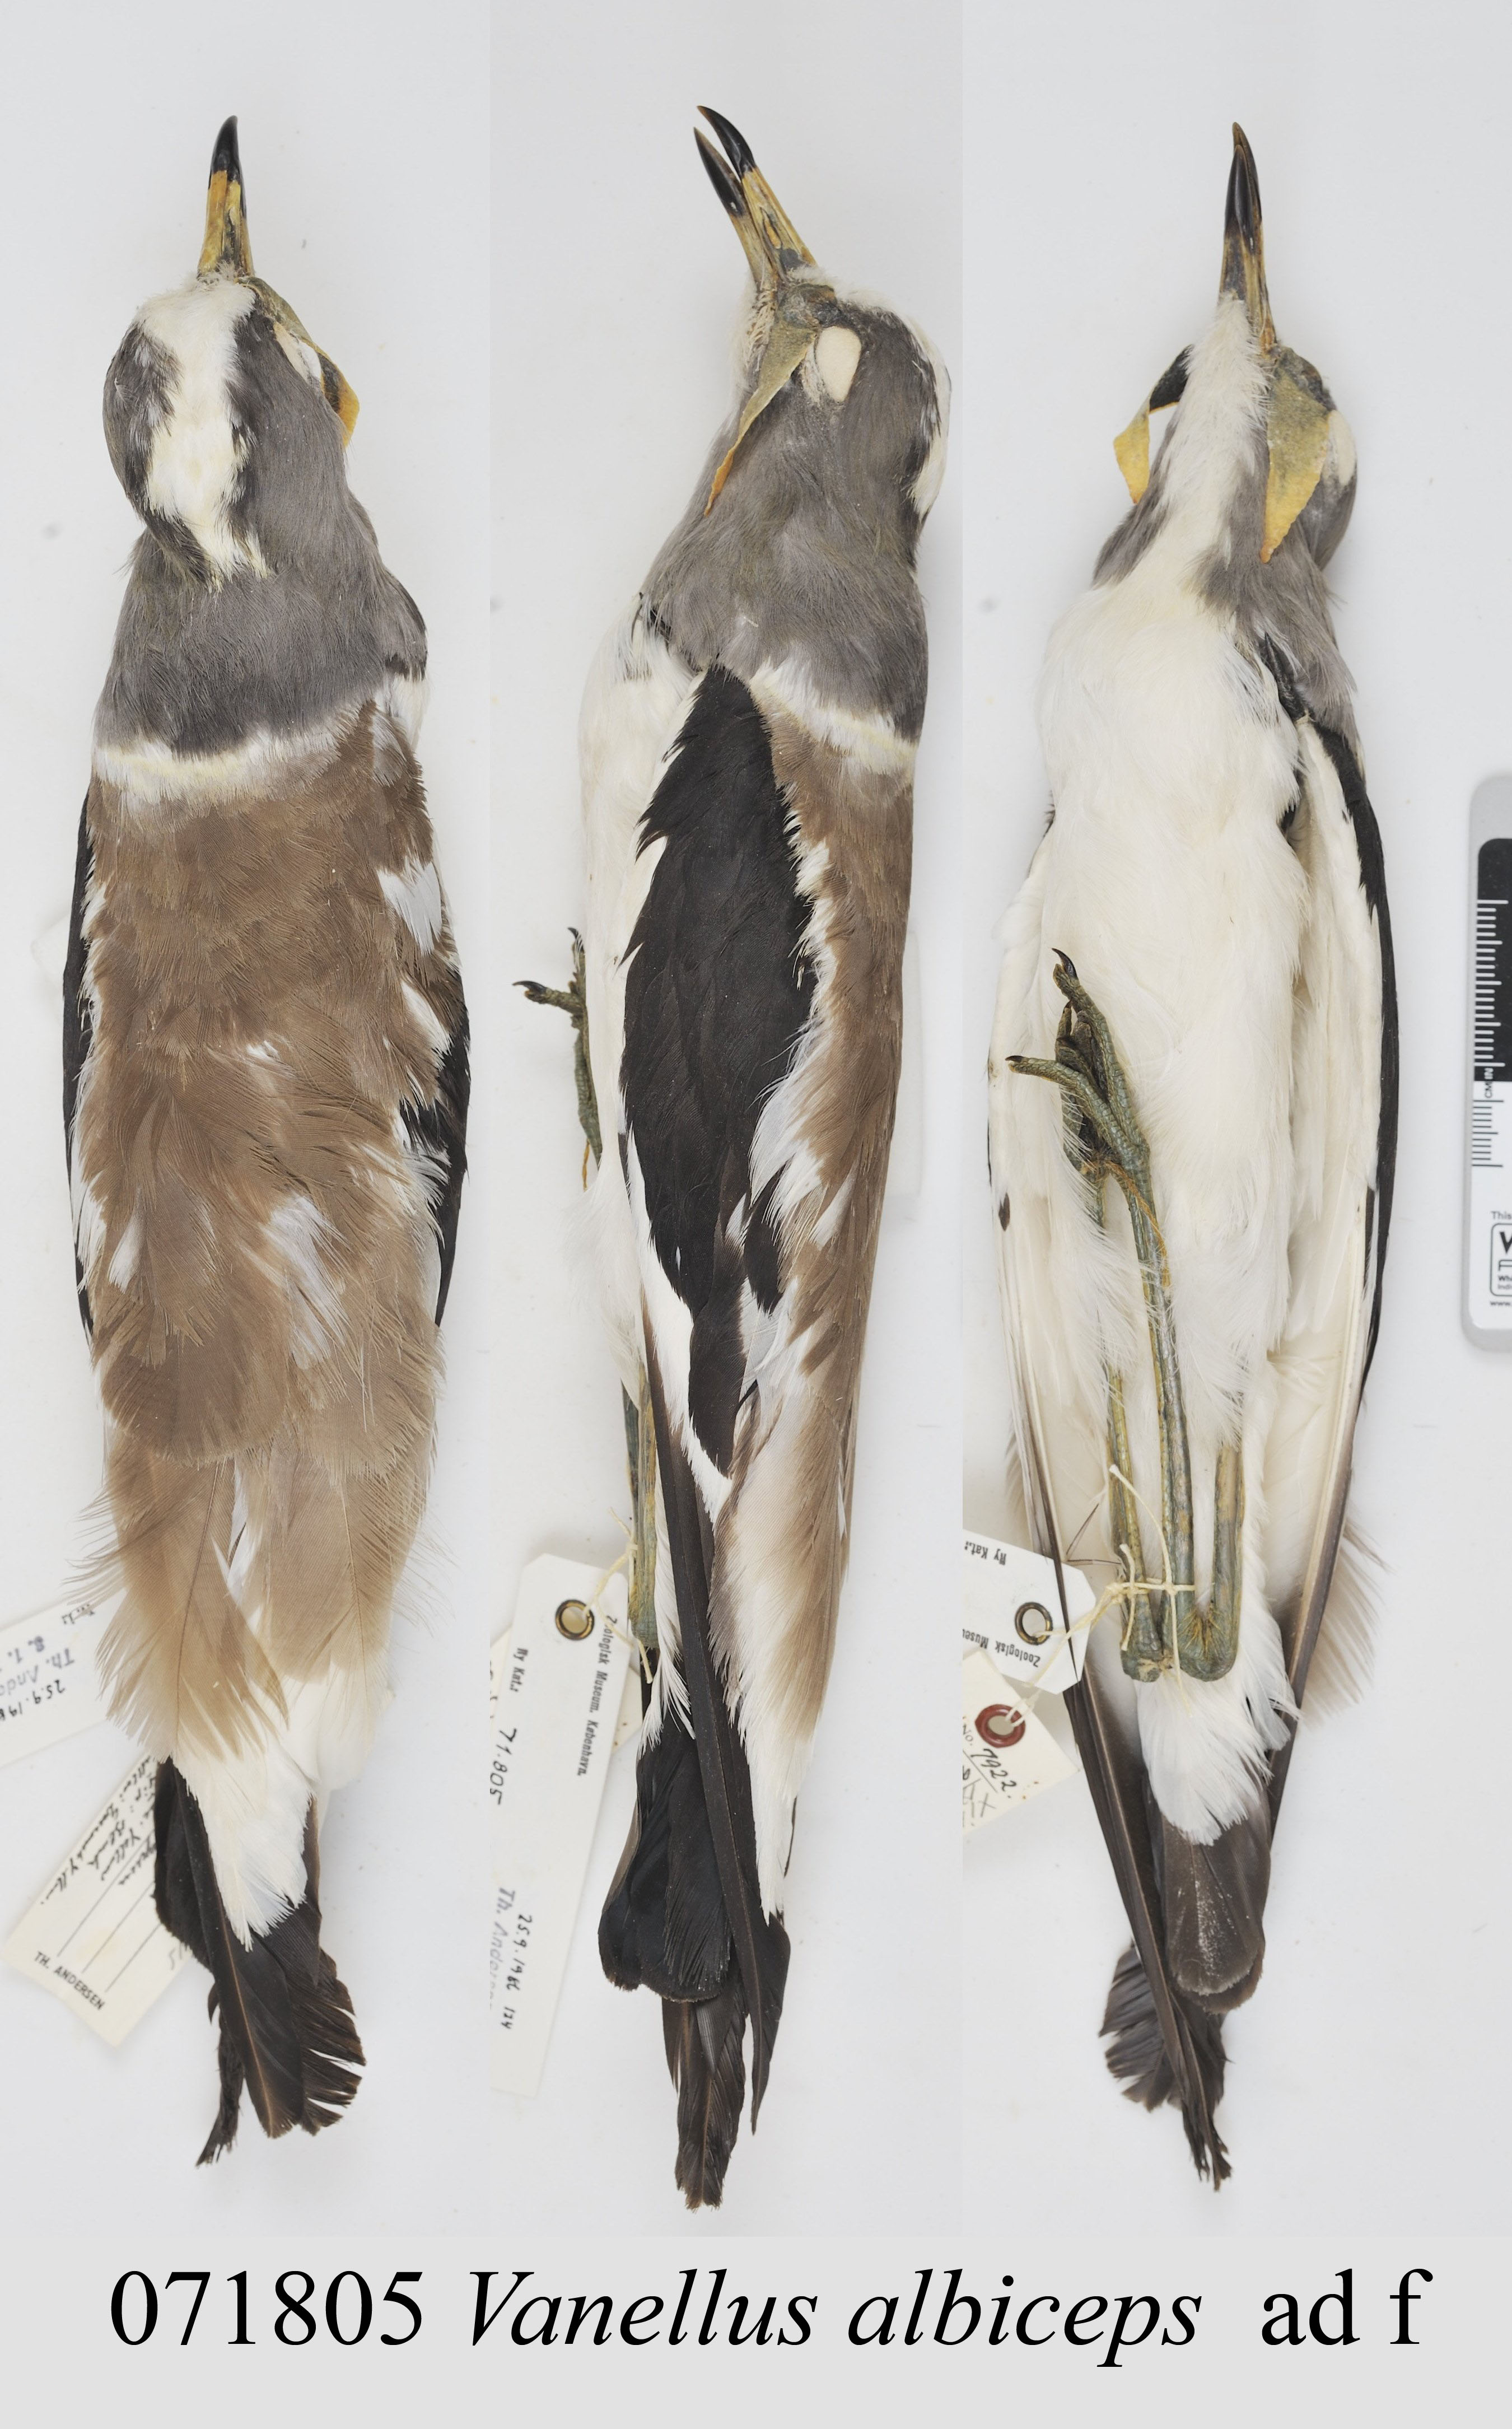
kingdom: Animalia
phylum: Chordata
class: Aves
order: Charadriiformes
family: Charadriidae
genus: Vanellus
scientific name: Vanellus albiceps
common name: White-crowned lapwing
